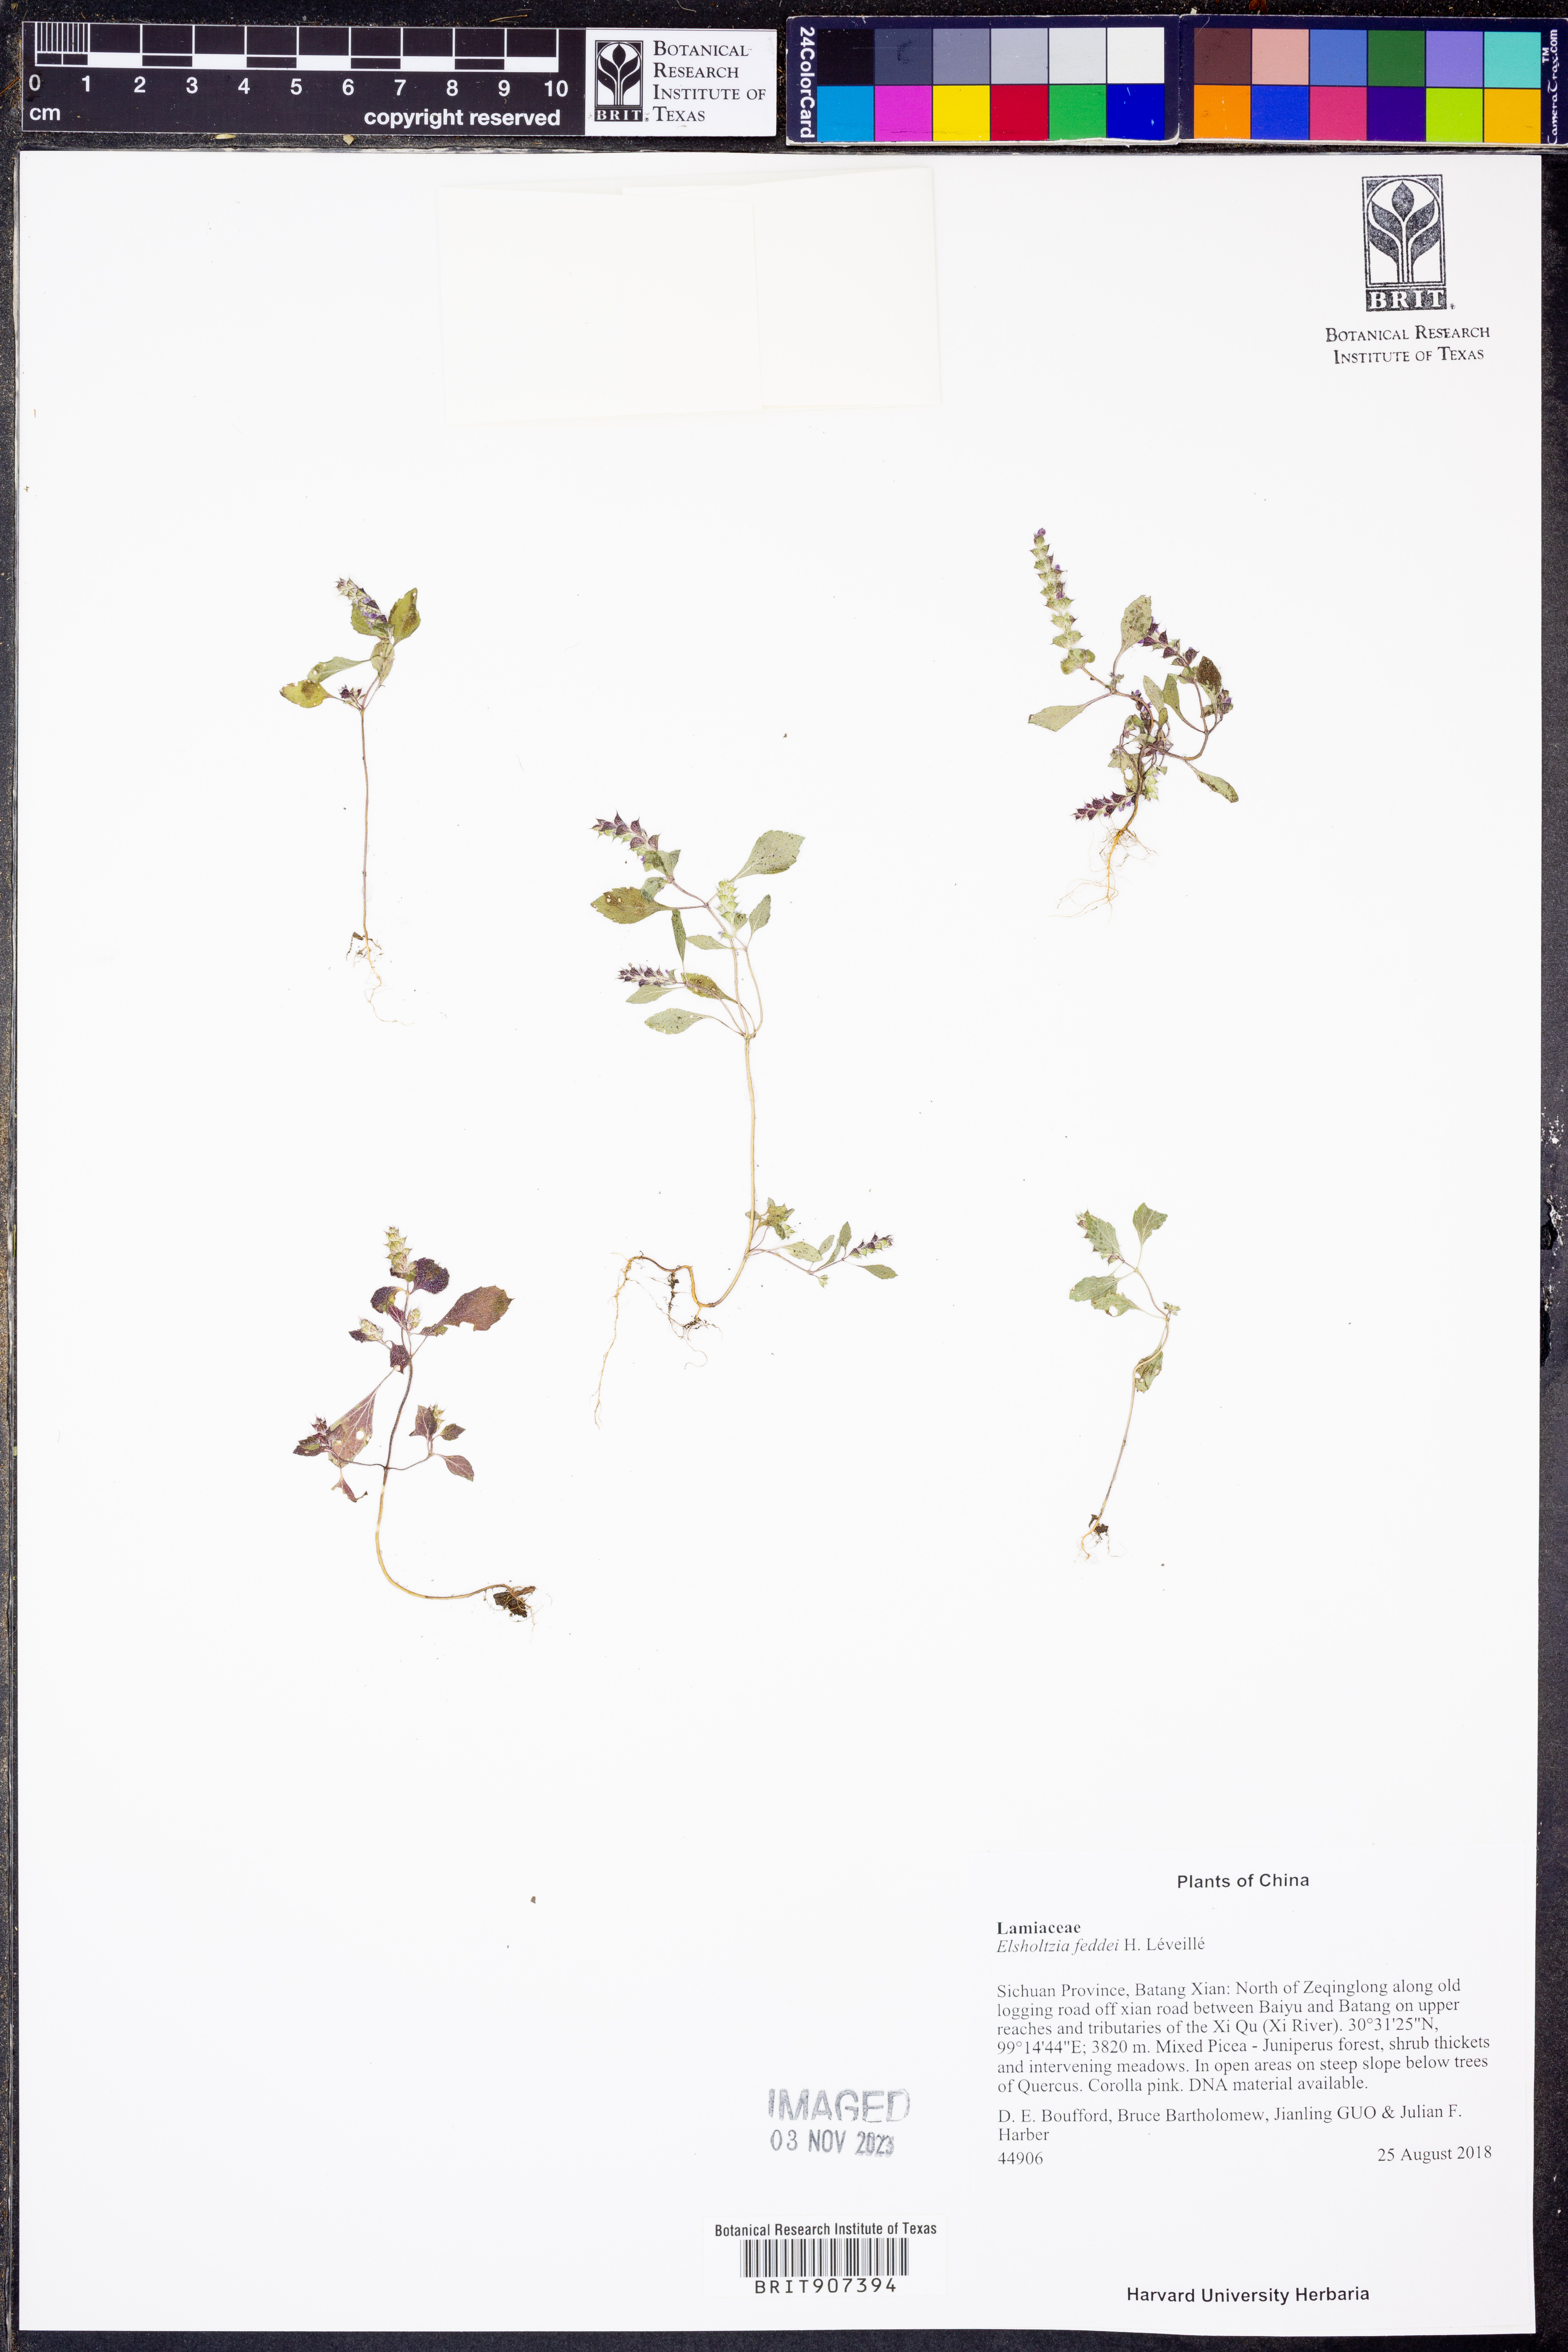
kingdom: Plantae
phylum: Tracheophyta
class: Magnoliopsida
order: Lamiales
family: Lamiaceae
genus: Elsholtzia
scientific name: Elsholtzia feddei
